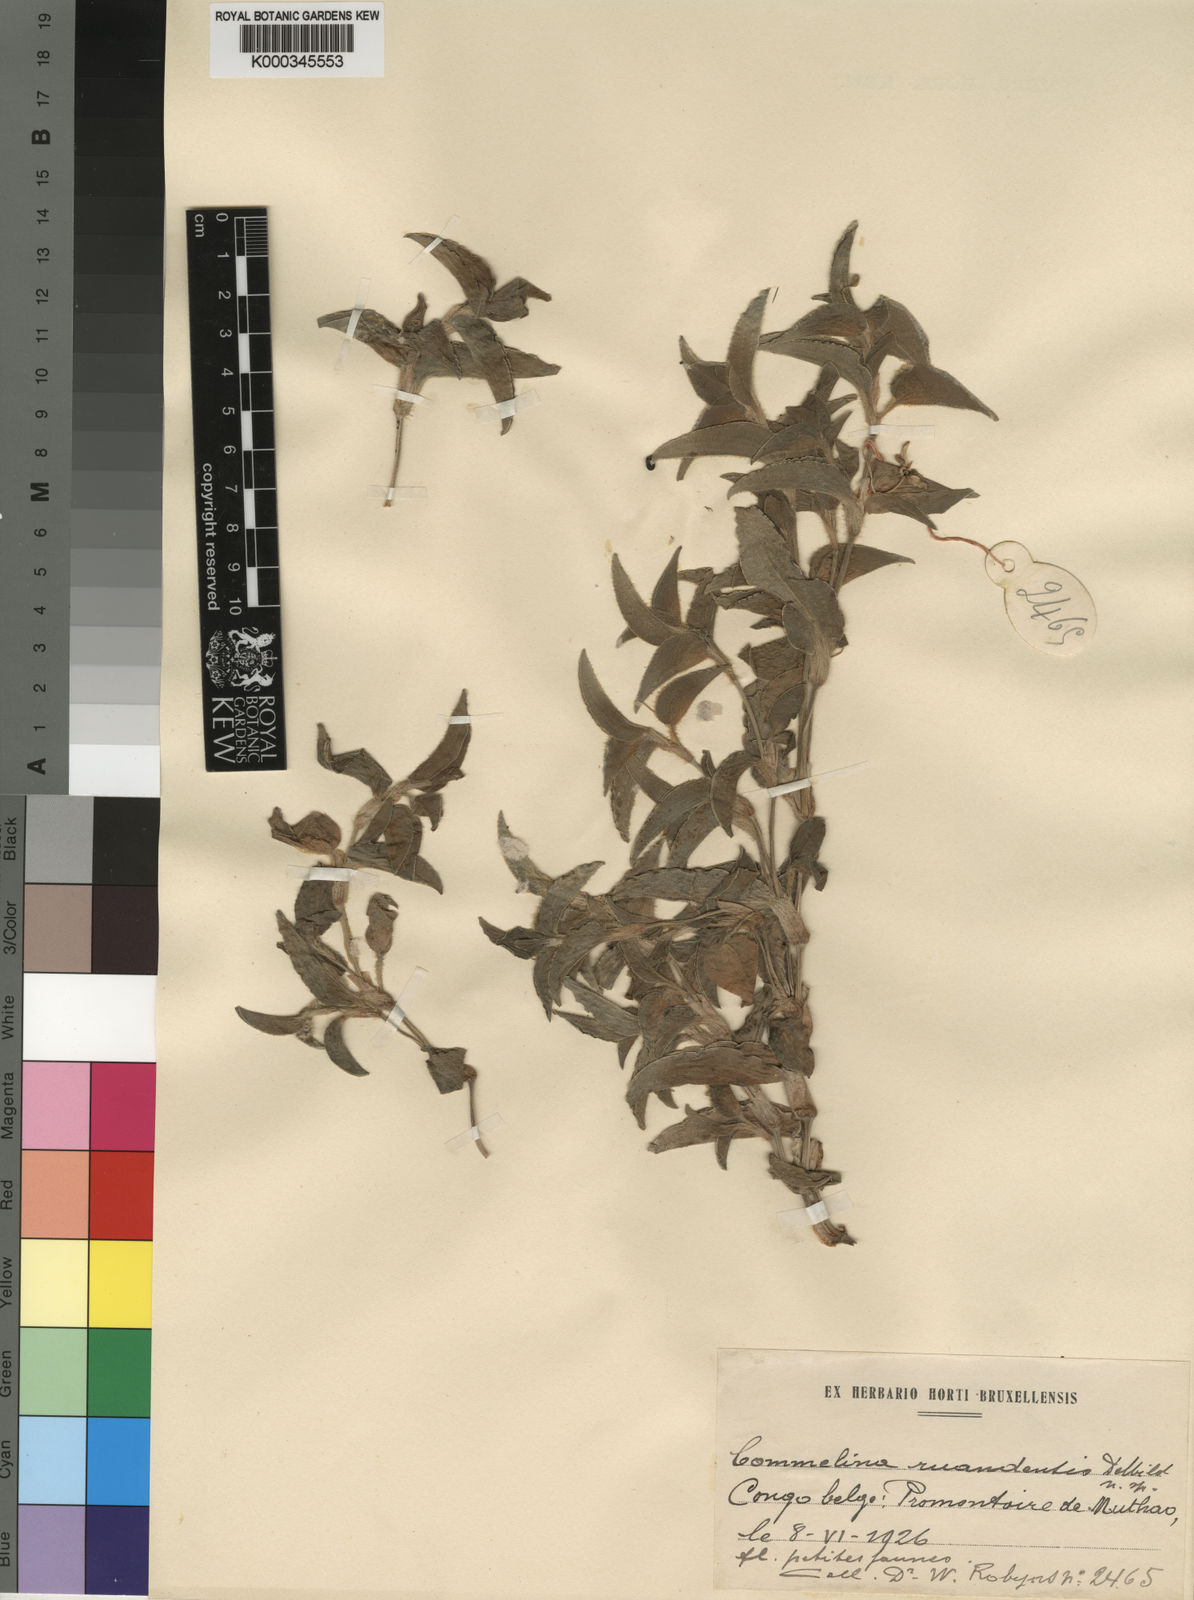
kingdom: Plantae
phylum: Tracheophyta
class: Liliopsida
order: Commelinales
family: Commelinaceae
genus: Commelina
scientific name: Commelina ruandensis
